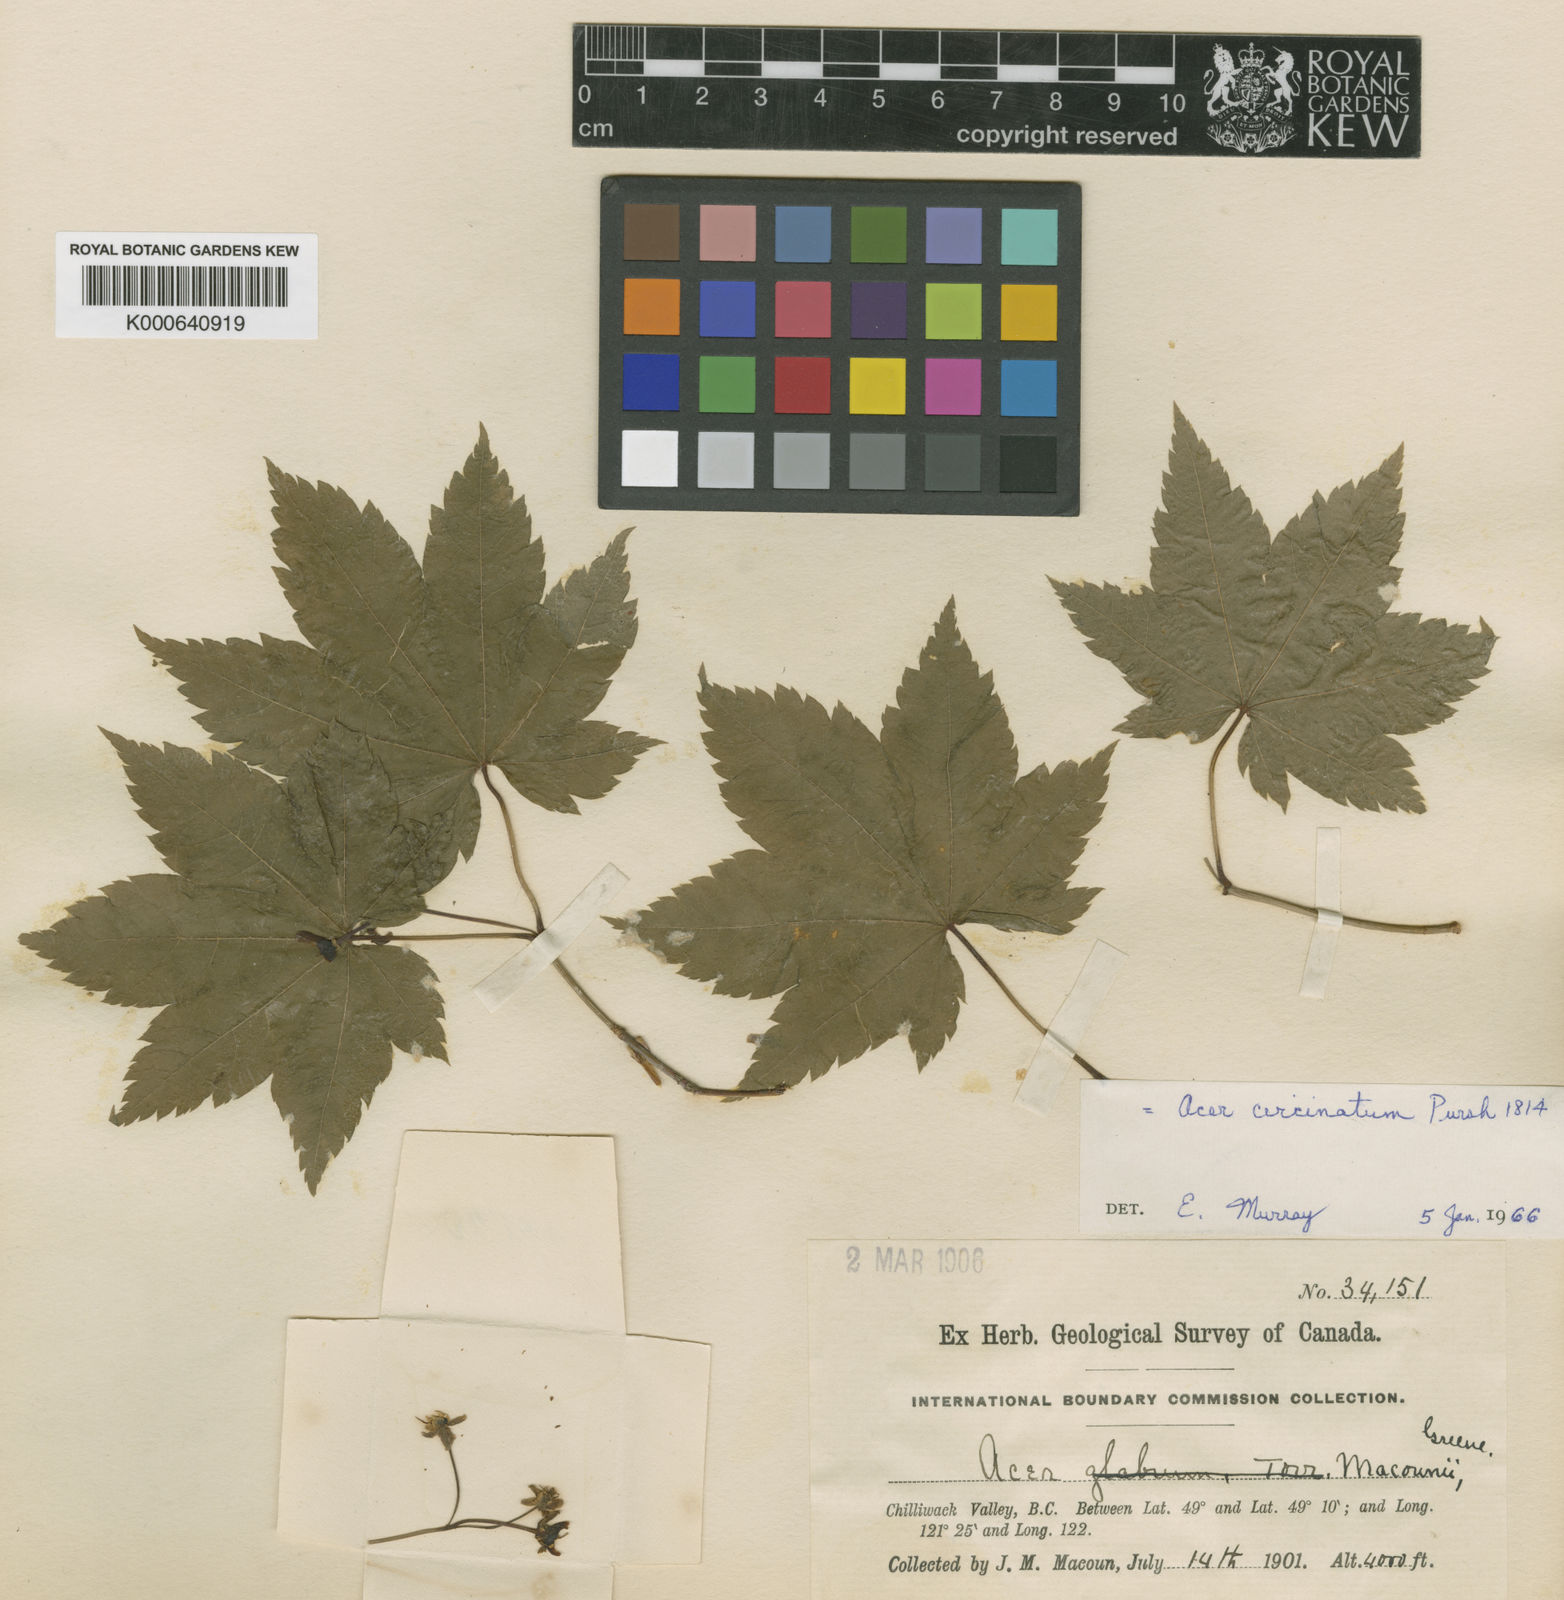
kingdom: Plantae
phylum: Tracheophyta
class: Magnoliopsida
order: Sapindales
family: Sapindaceae
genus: Acer
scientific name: Acer circinatum
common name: Vine maple
